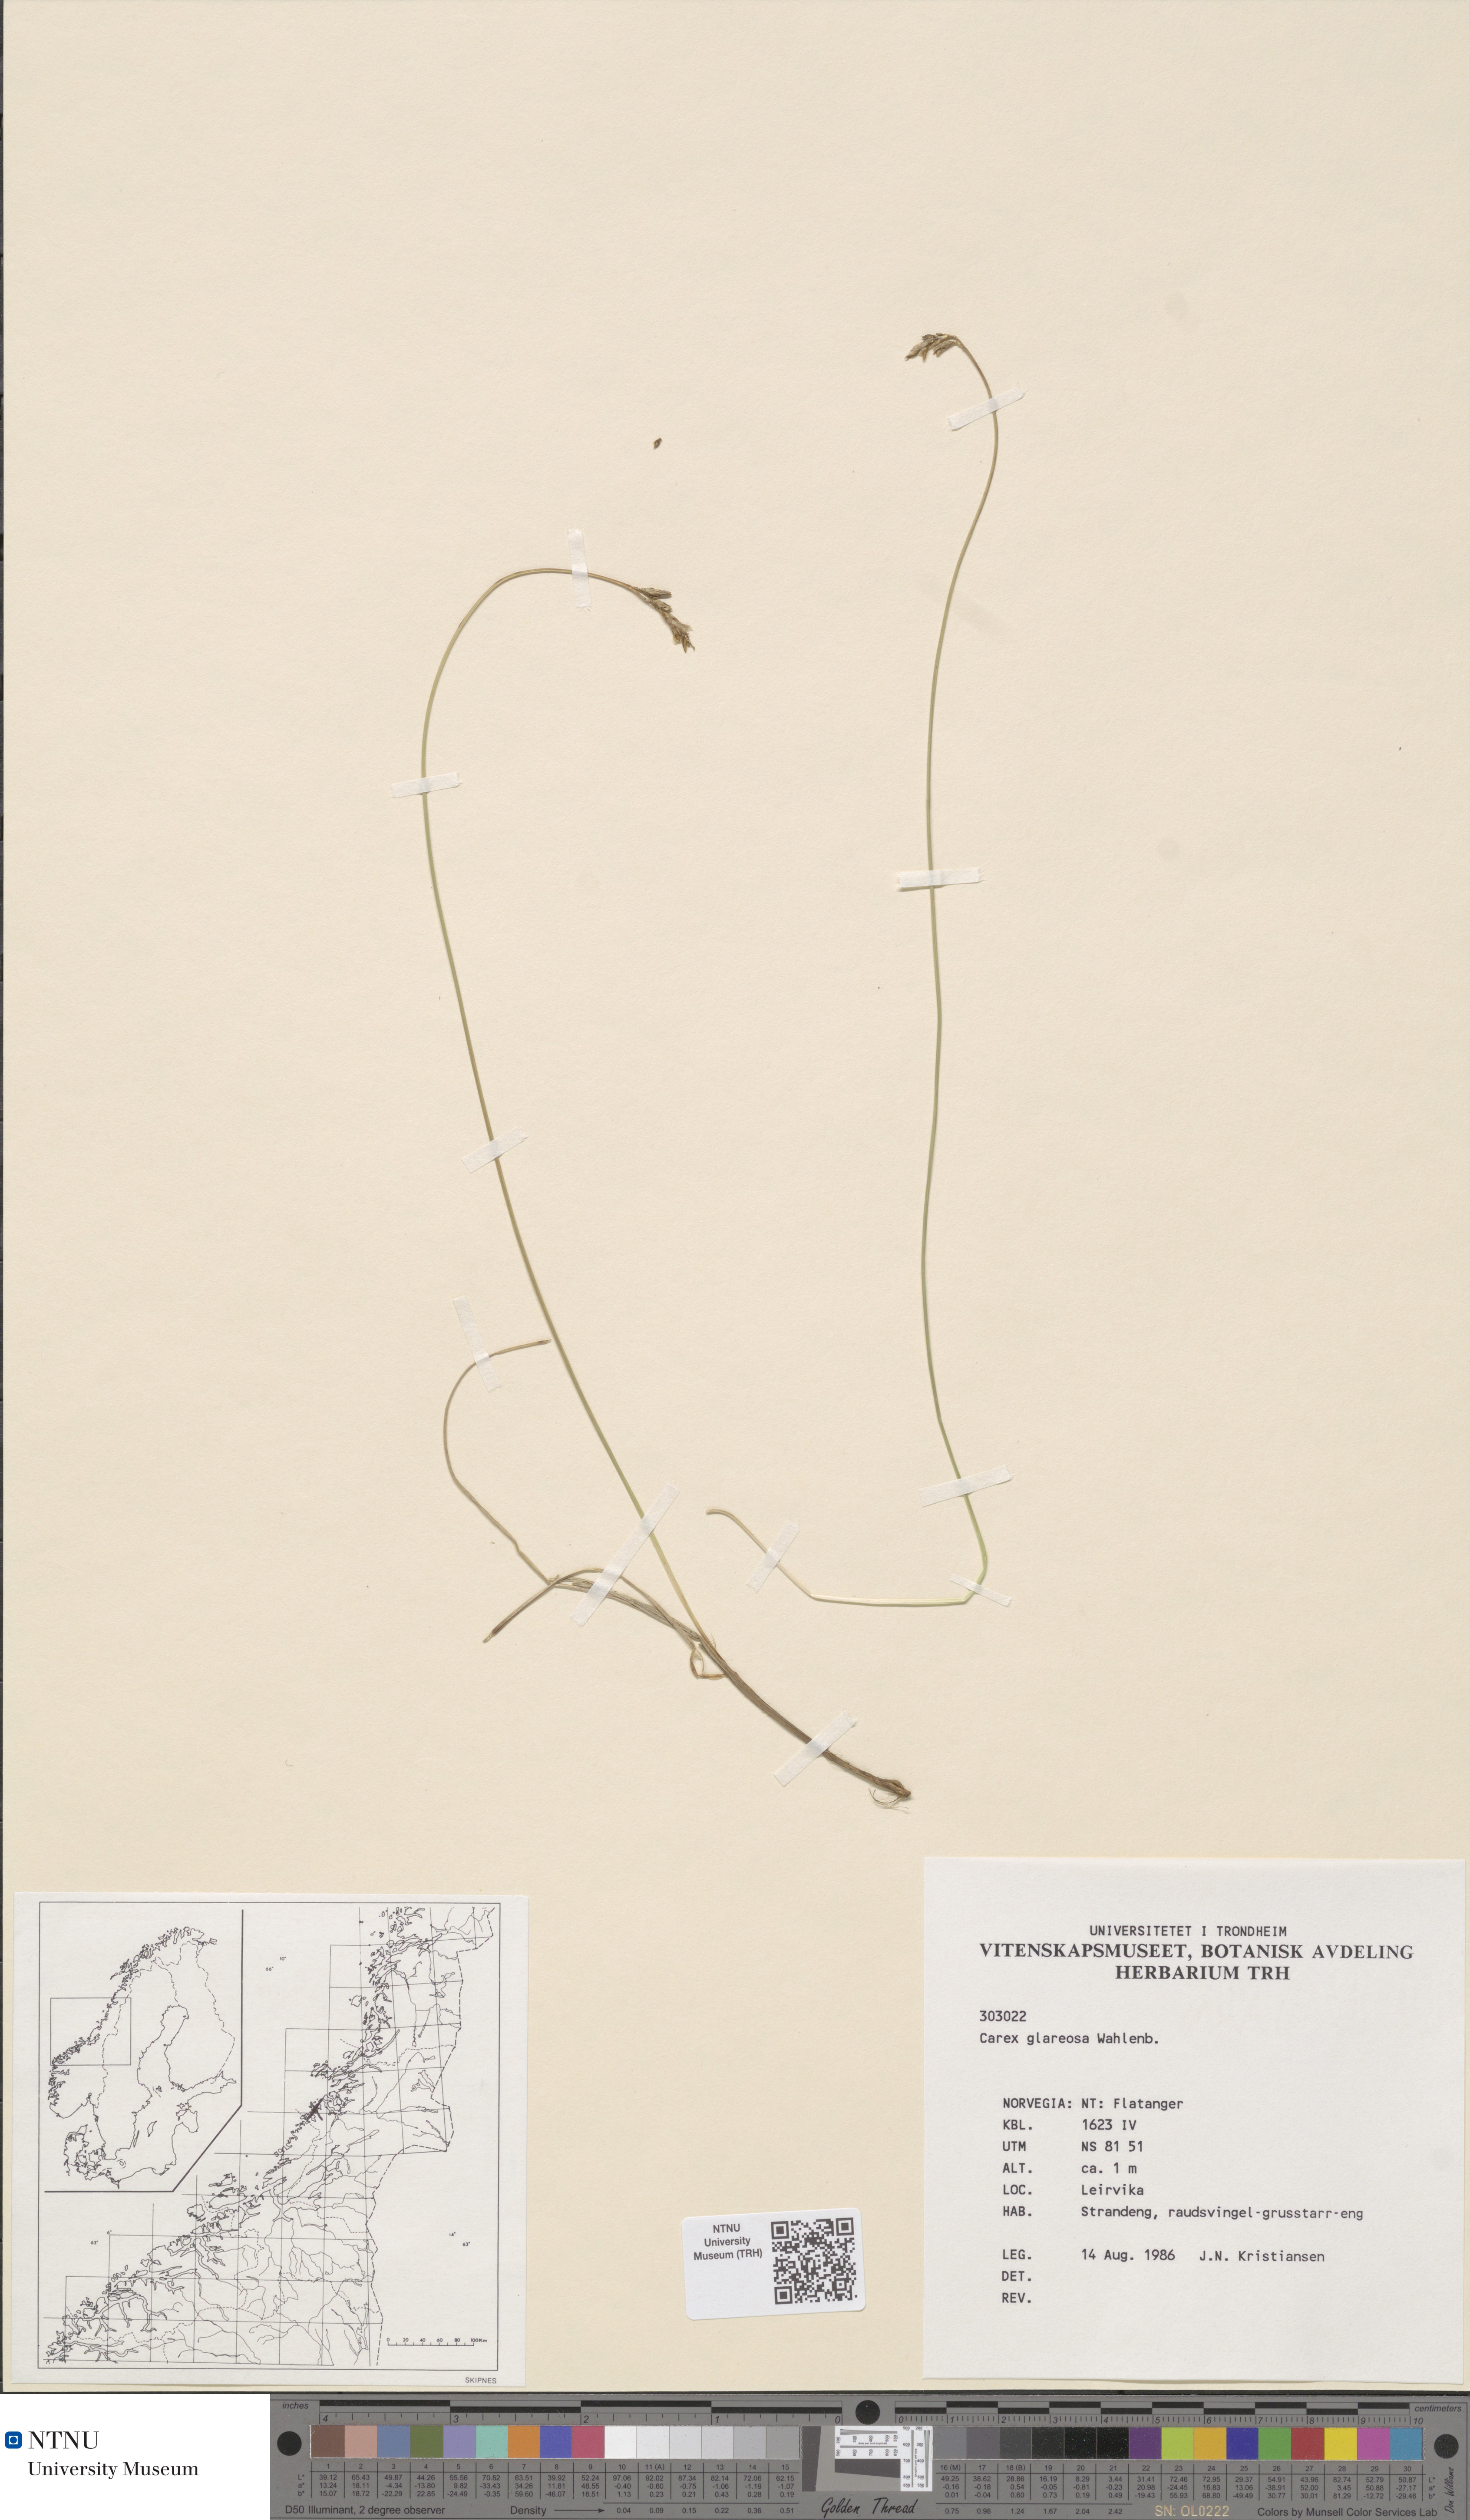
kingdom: Plantae
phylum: Tracheophyta
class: Liliopsida
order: Poales
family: Cyperaceae
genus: Carex
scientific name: Carex glareosa
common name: Clustered sedge
